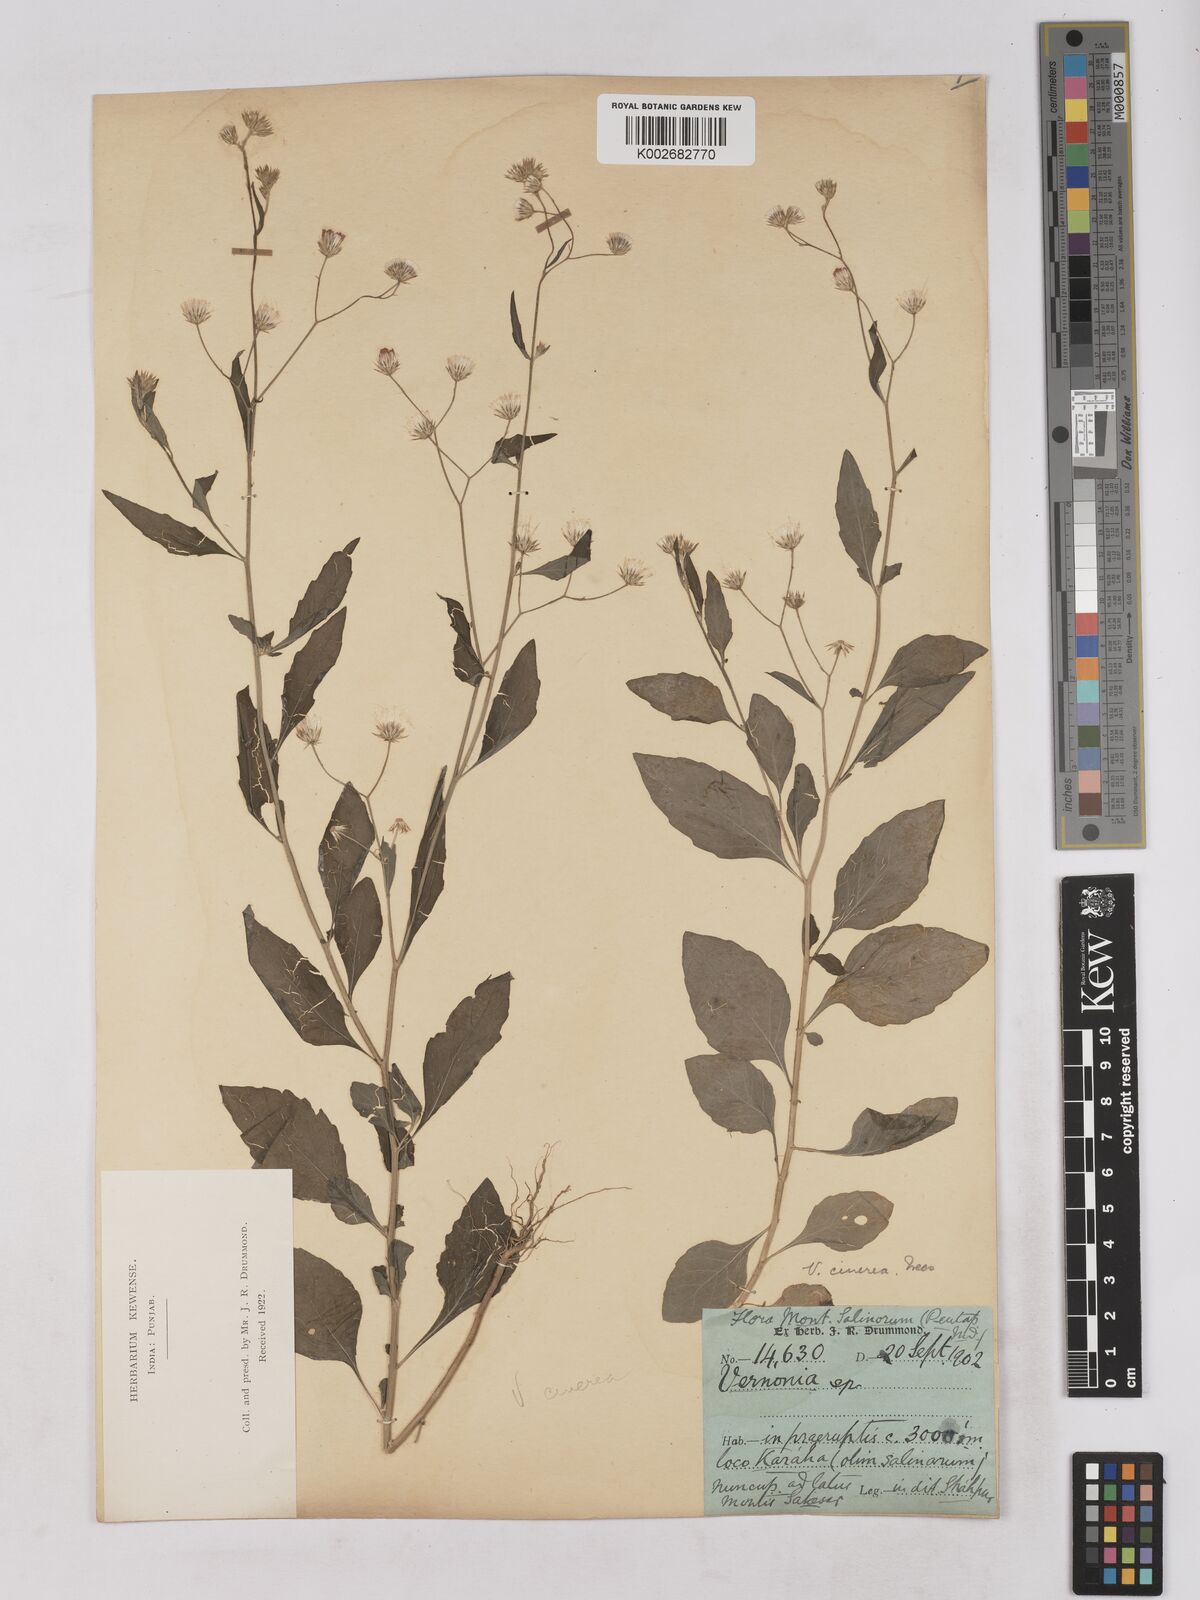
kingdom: Plantae
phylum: Tracheophyta
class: Magnoliopsida
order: Asterales
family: Asteraceae
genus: Cyanthillium
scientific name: Cyanthillium cinereum
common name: Little ironweed
